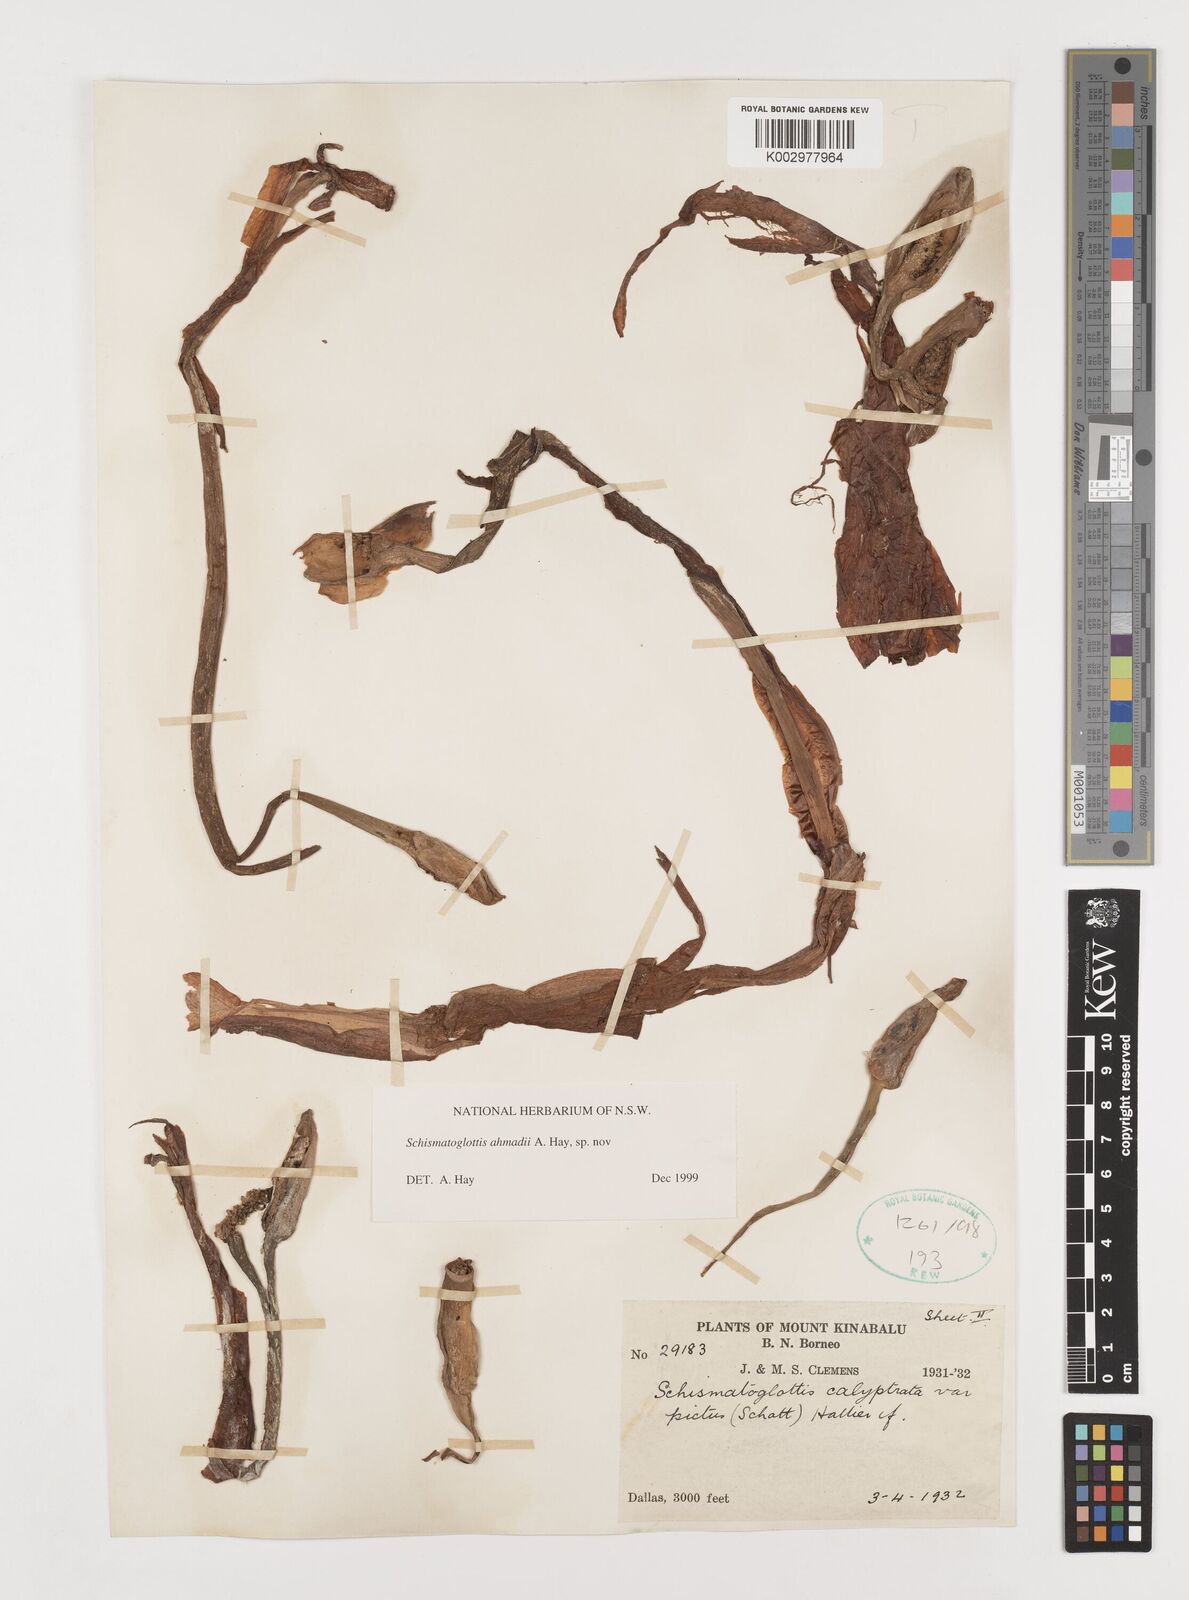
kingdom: Plantae
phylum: Tracheophyta
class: Liliopsida
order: Alismatales
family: Araceae
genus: Schismatoglottis
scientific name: Schismatoglottis ahmadii
